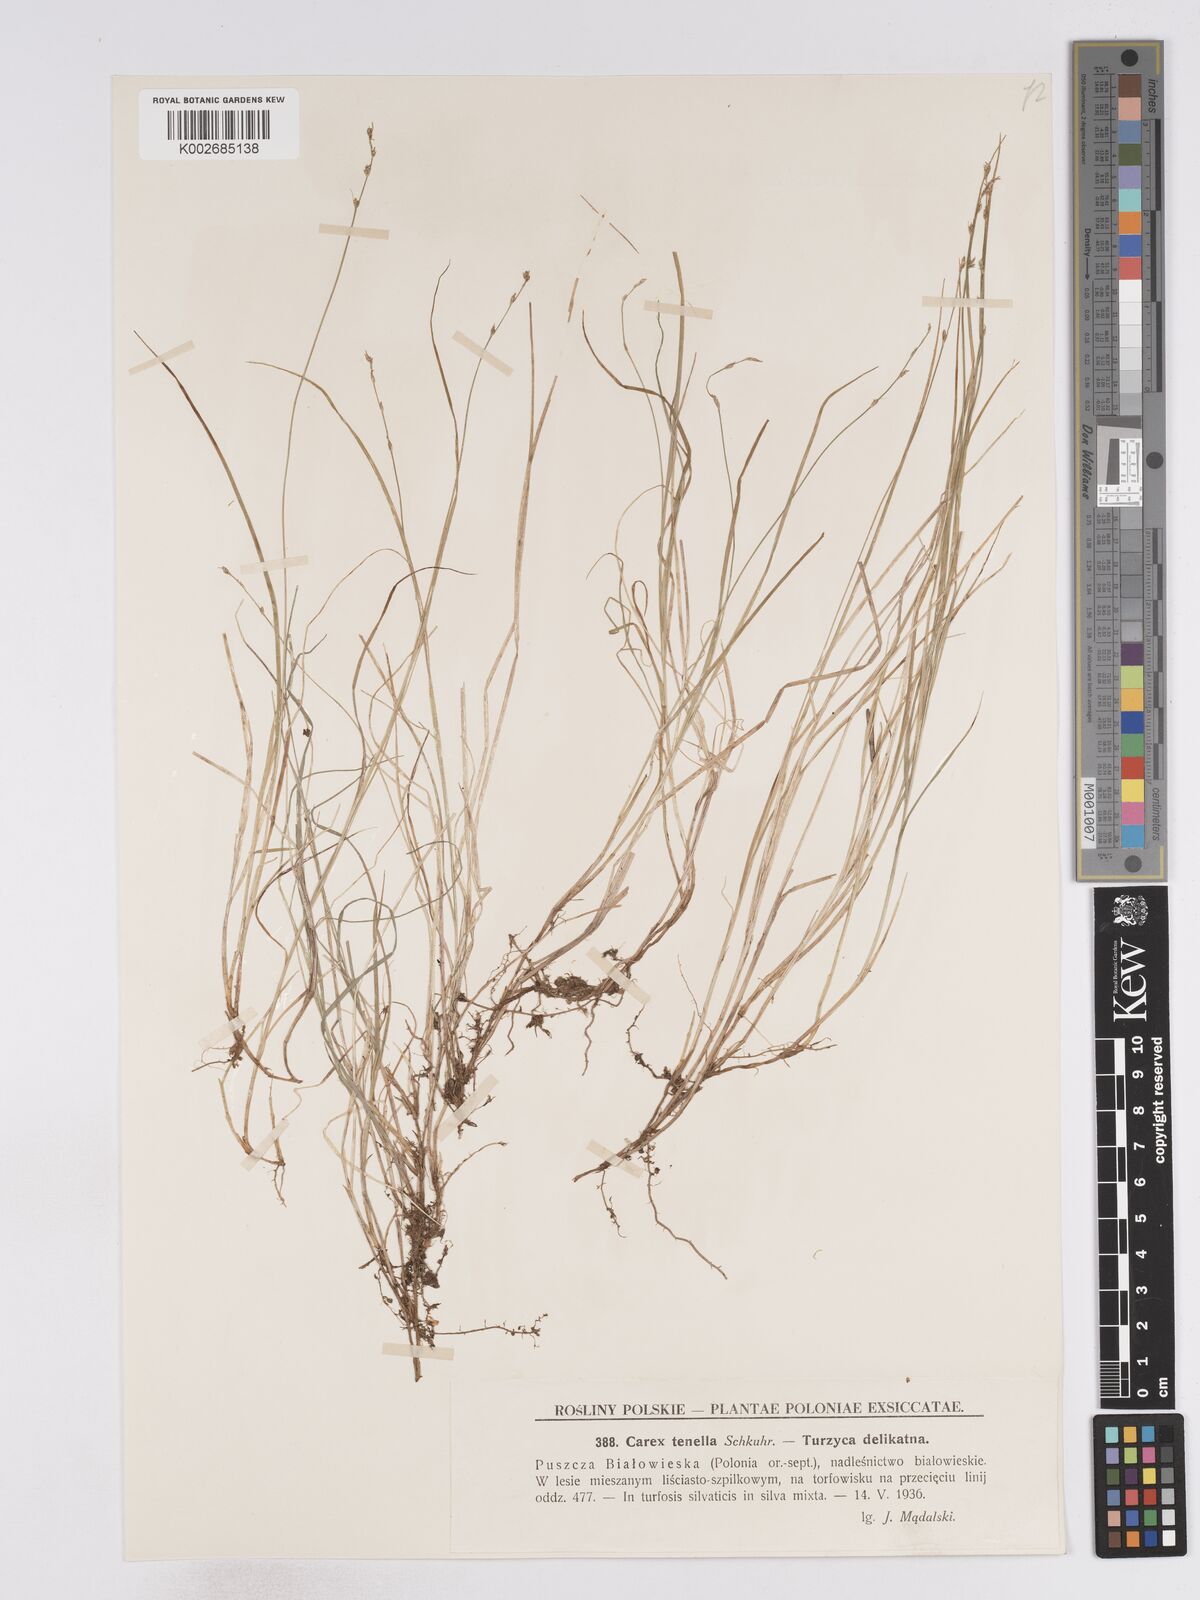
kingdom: Plantae
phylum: Tracheophyta
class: Liliopsida
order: Poales
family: Cyperaceae
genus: Carex
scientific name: Carex disperma
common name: Short-leaved sedge
